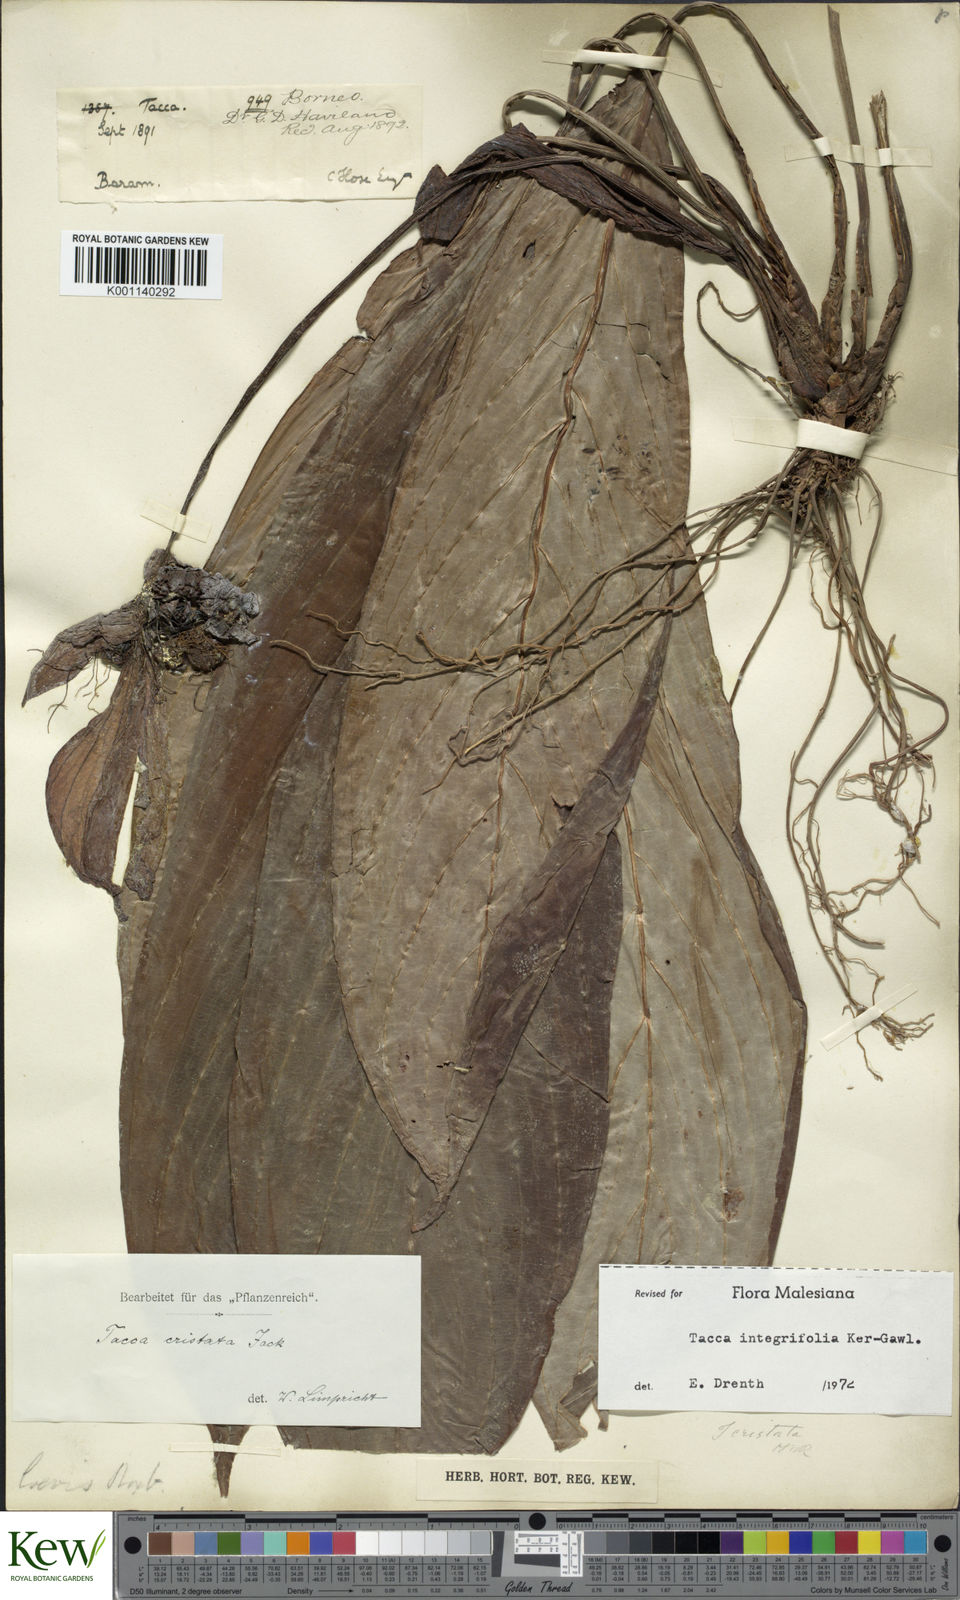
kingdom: Plantae
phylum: Tracheophyta
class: Liliopsida
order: Dioscoreales
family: Dioscoreaceae
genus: Tacca
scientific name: Tacca integrifolia
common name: Batplant
